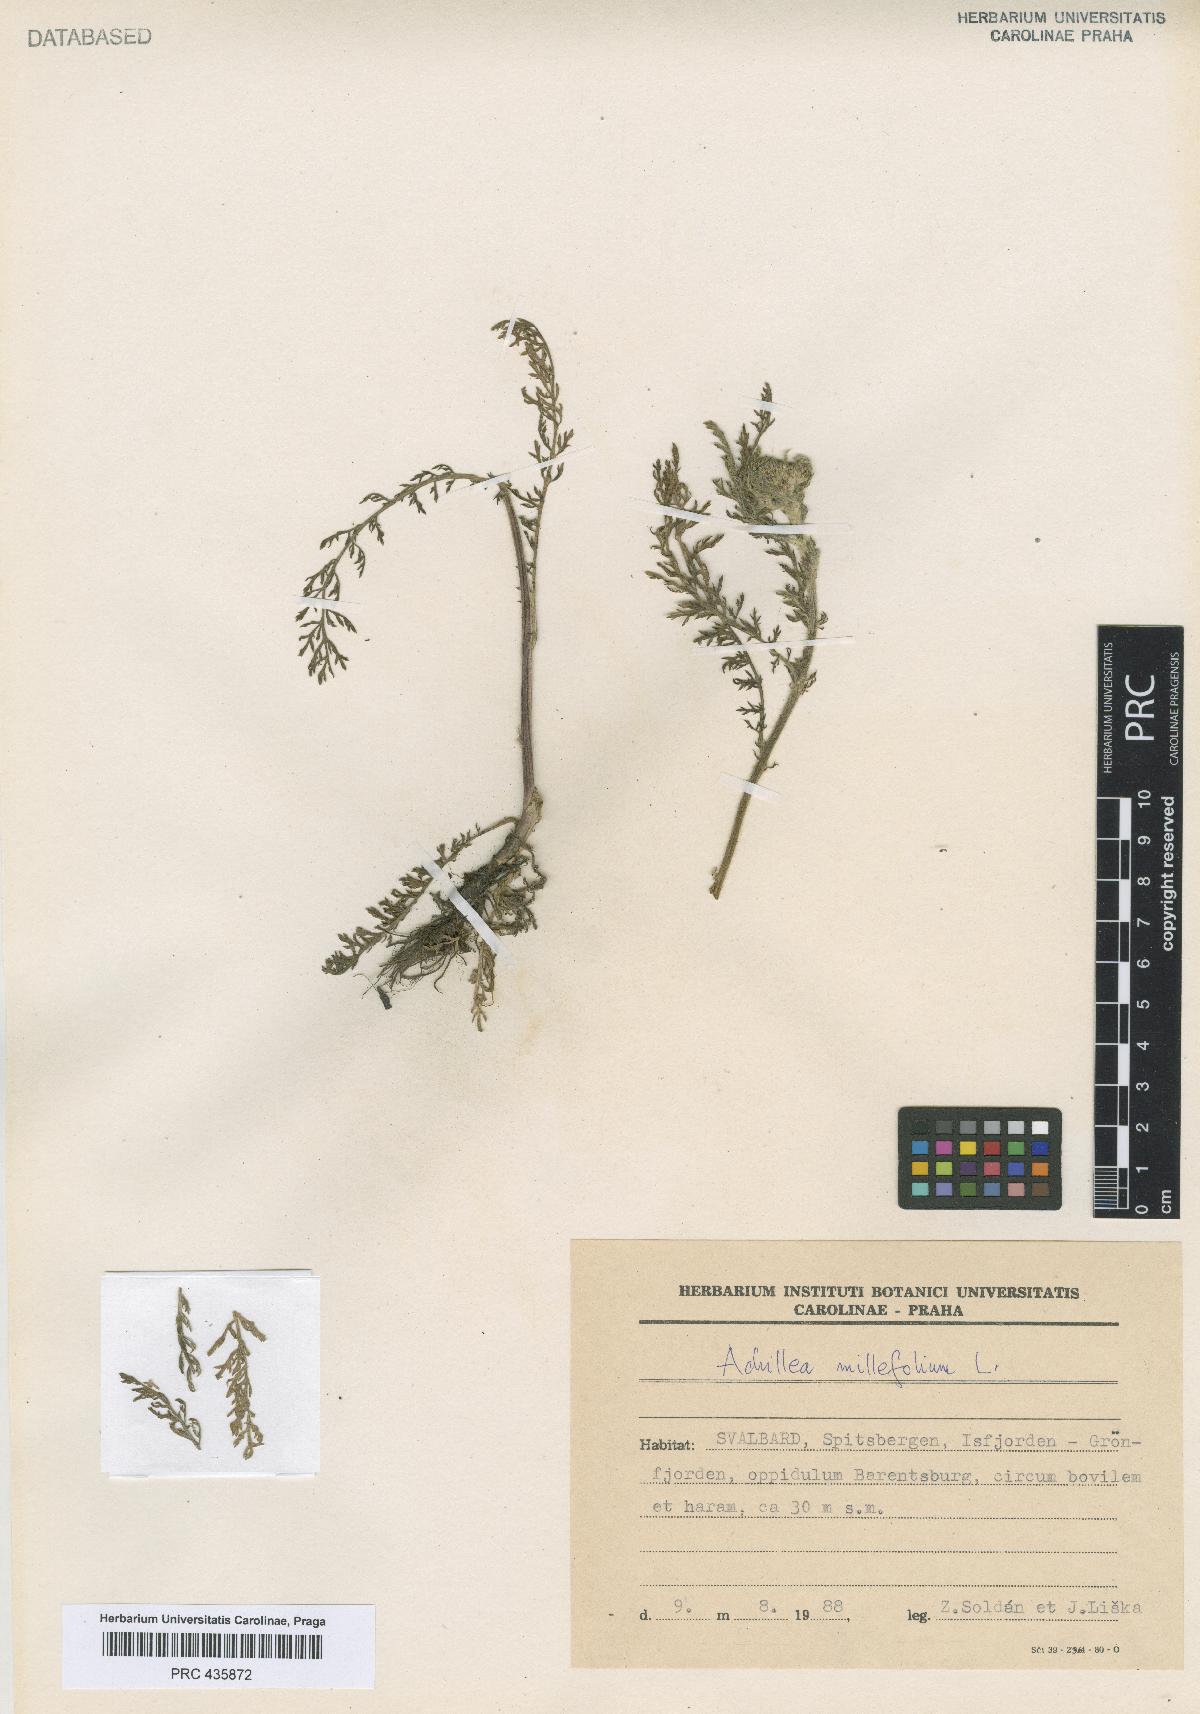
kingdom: Plantae
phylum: Tracheophyta
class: Magnoliopsida
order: Asterales
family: Asteraceae
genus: Achillea
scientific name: Achillea millefolium
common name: Yarrow
